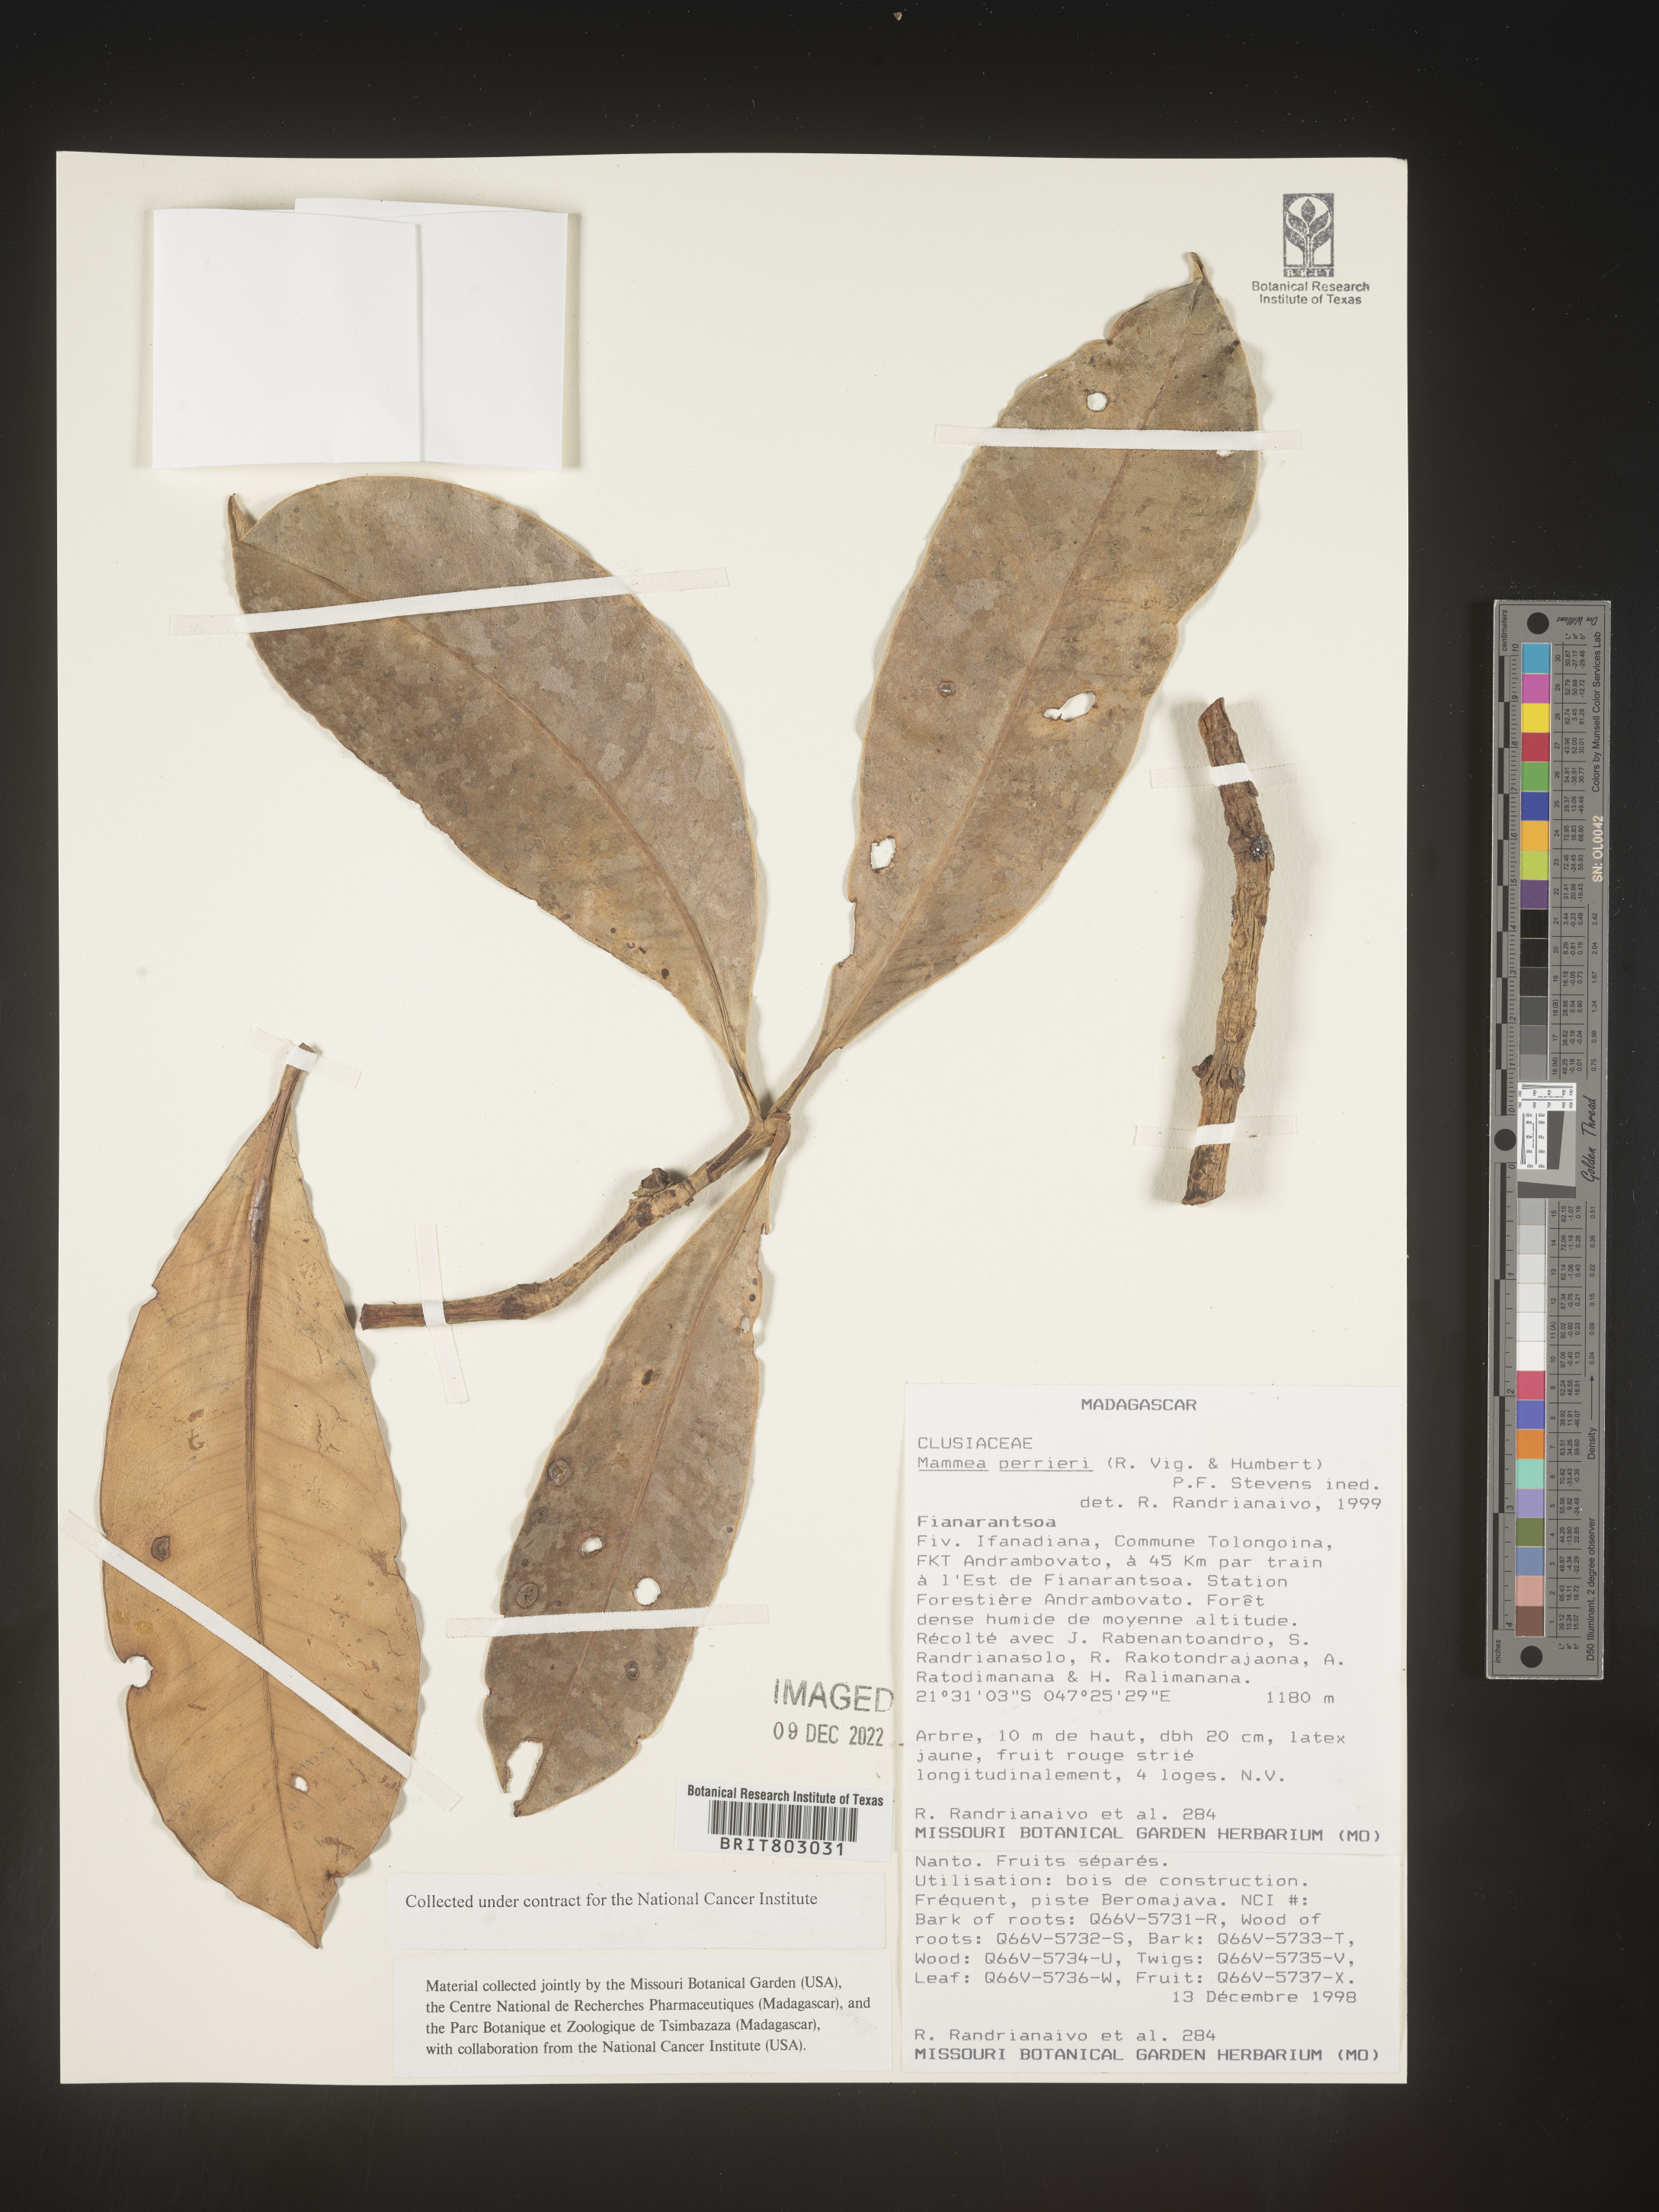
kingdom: Plantae
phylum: Tracheophyta
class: Magnoliopsida
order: Malpighiales
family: Calophyllaceae
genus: Mammea
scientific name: Mammea
